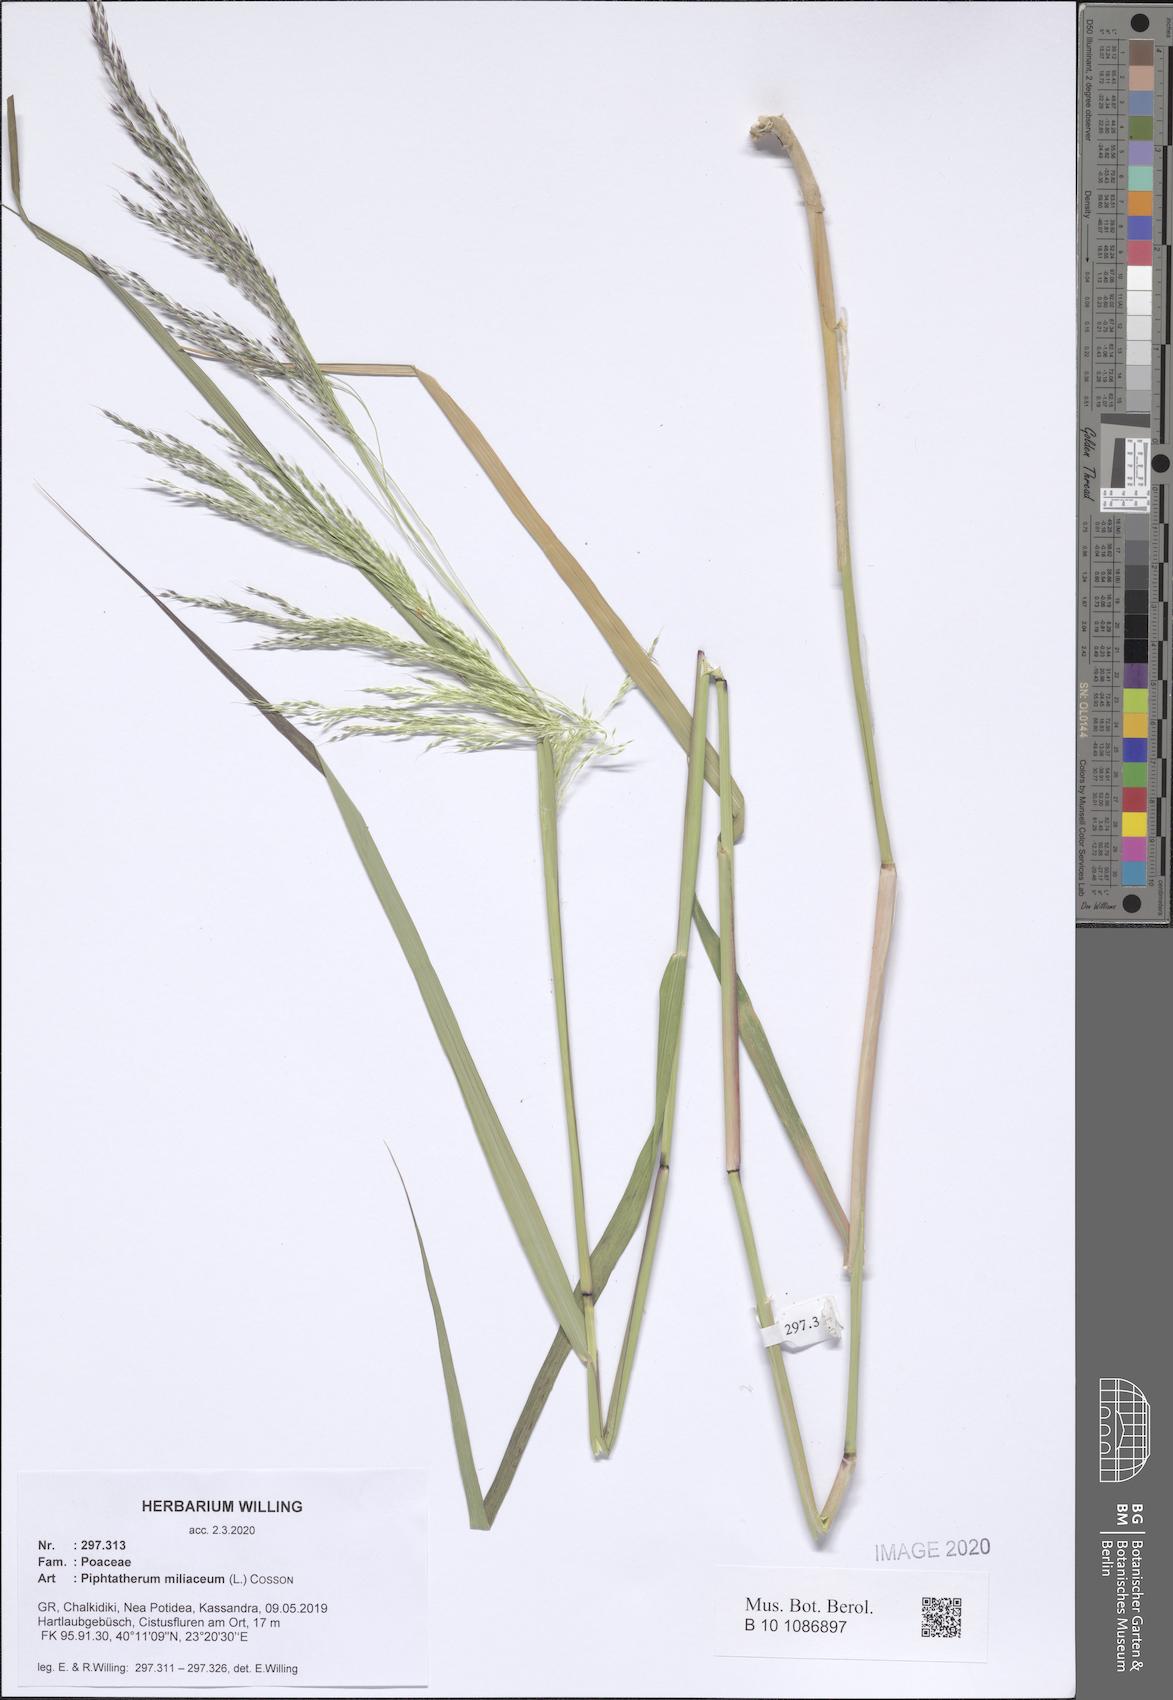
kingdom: Plantae
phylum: Tracheophyta
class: Liliopsida
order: Poales
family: Poaceae
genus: Oloptum
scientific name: Oloptum miliaceum
